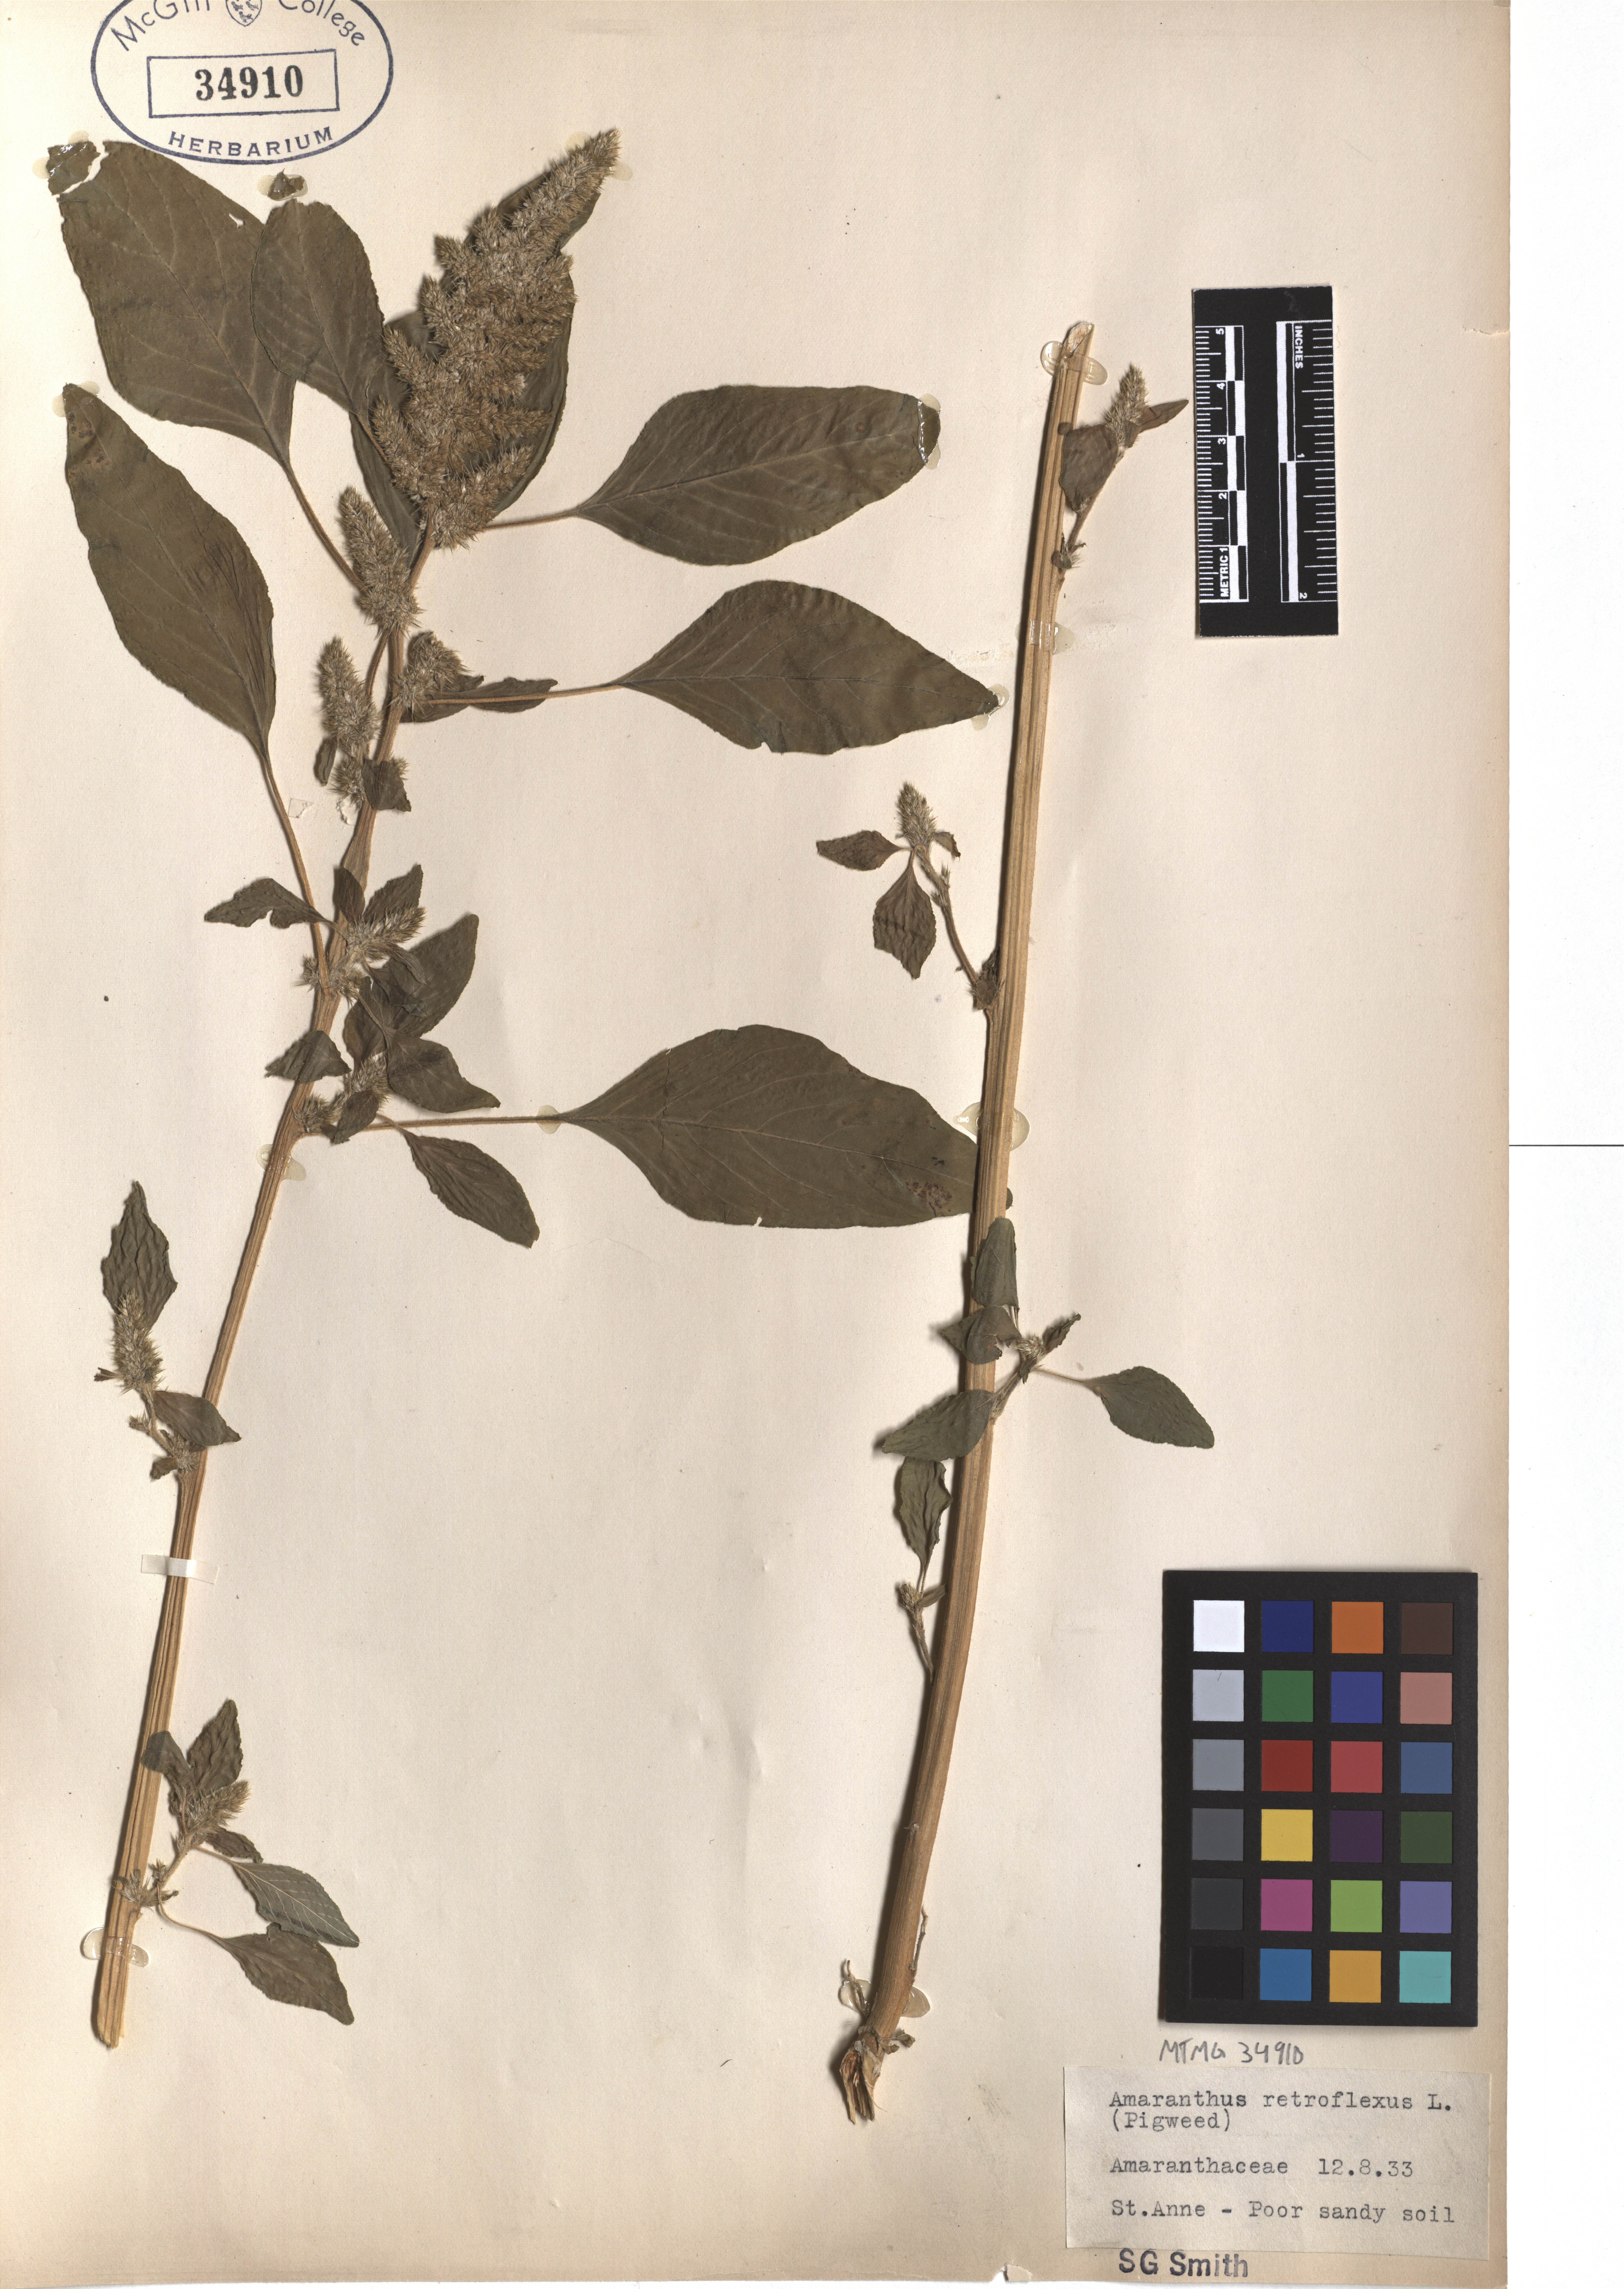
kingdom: Plantae
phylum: Tracheophyta
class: Magnoliopsida
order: Caryophyllales
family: Amaranthaceae
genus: Amaranthus
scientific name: Amaranthus retroflexus
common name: Redroot amaranth
